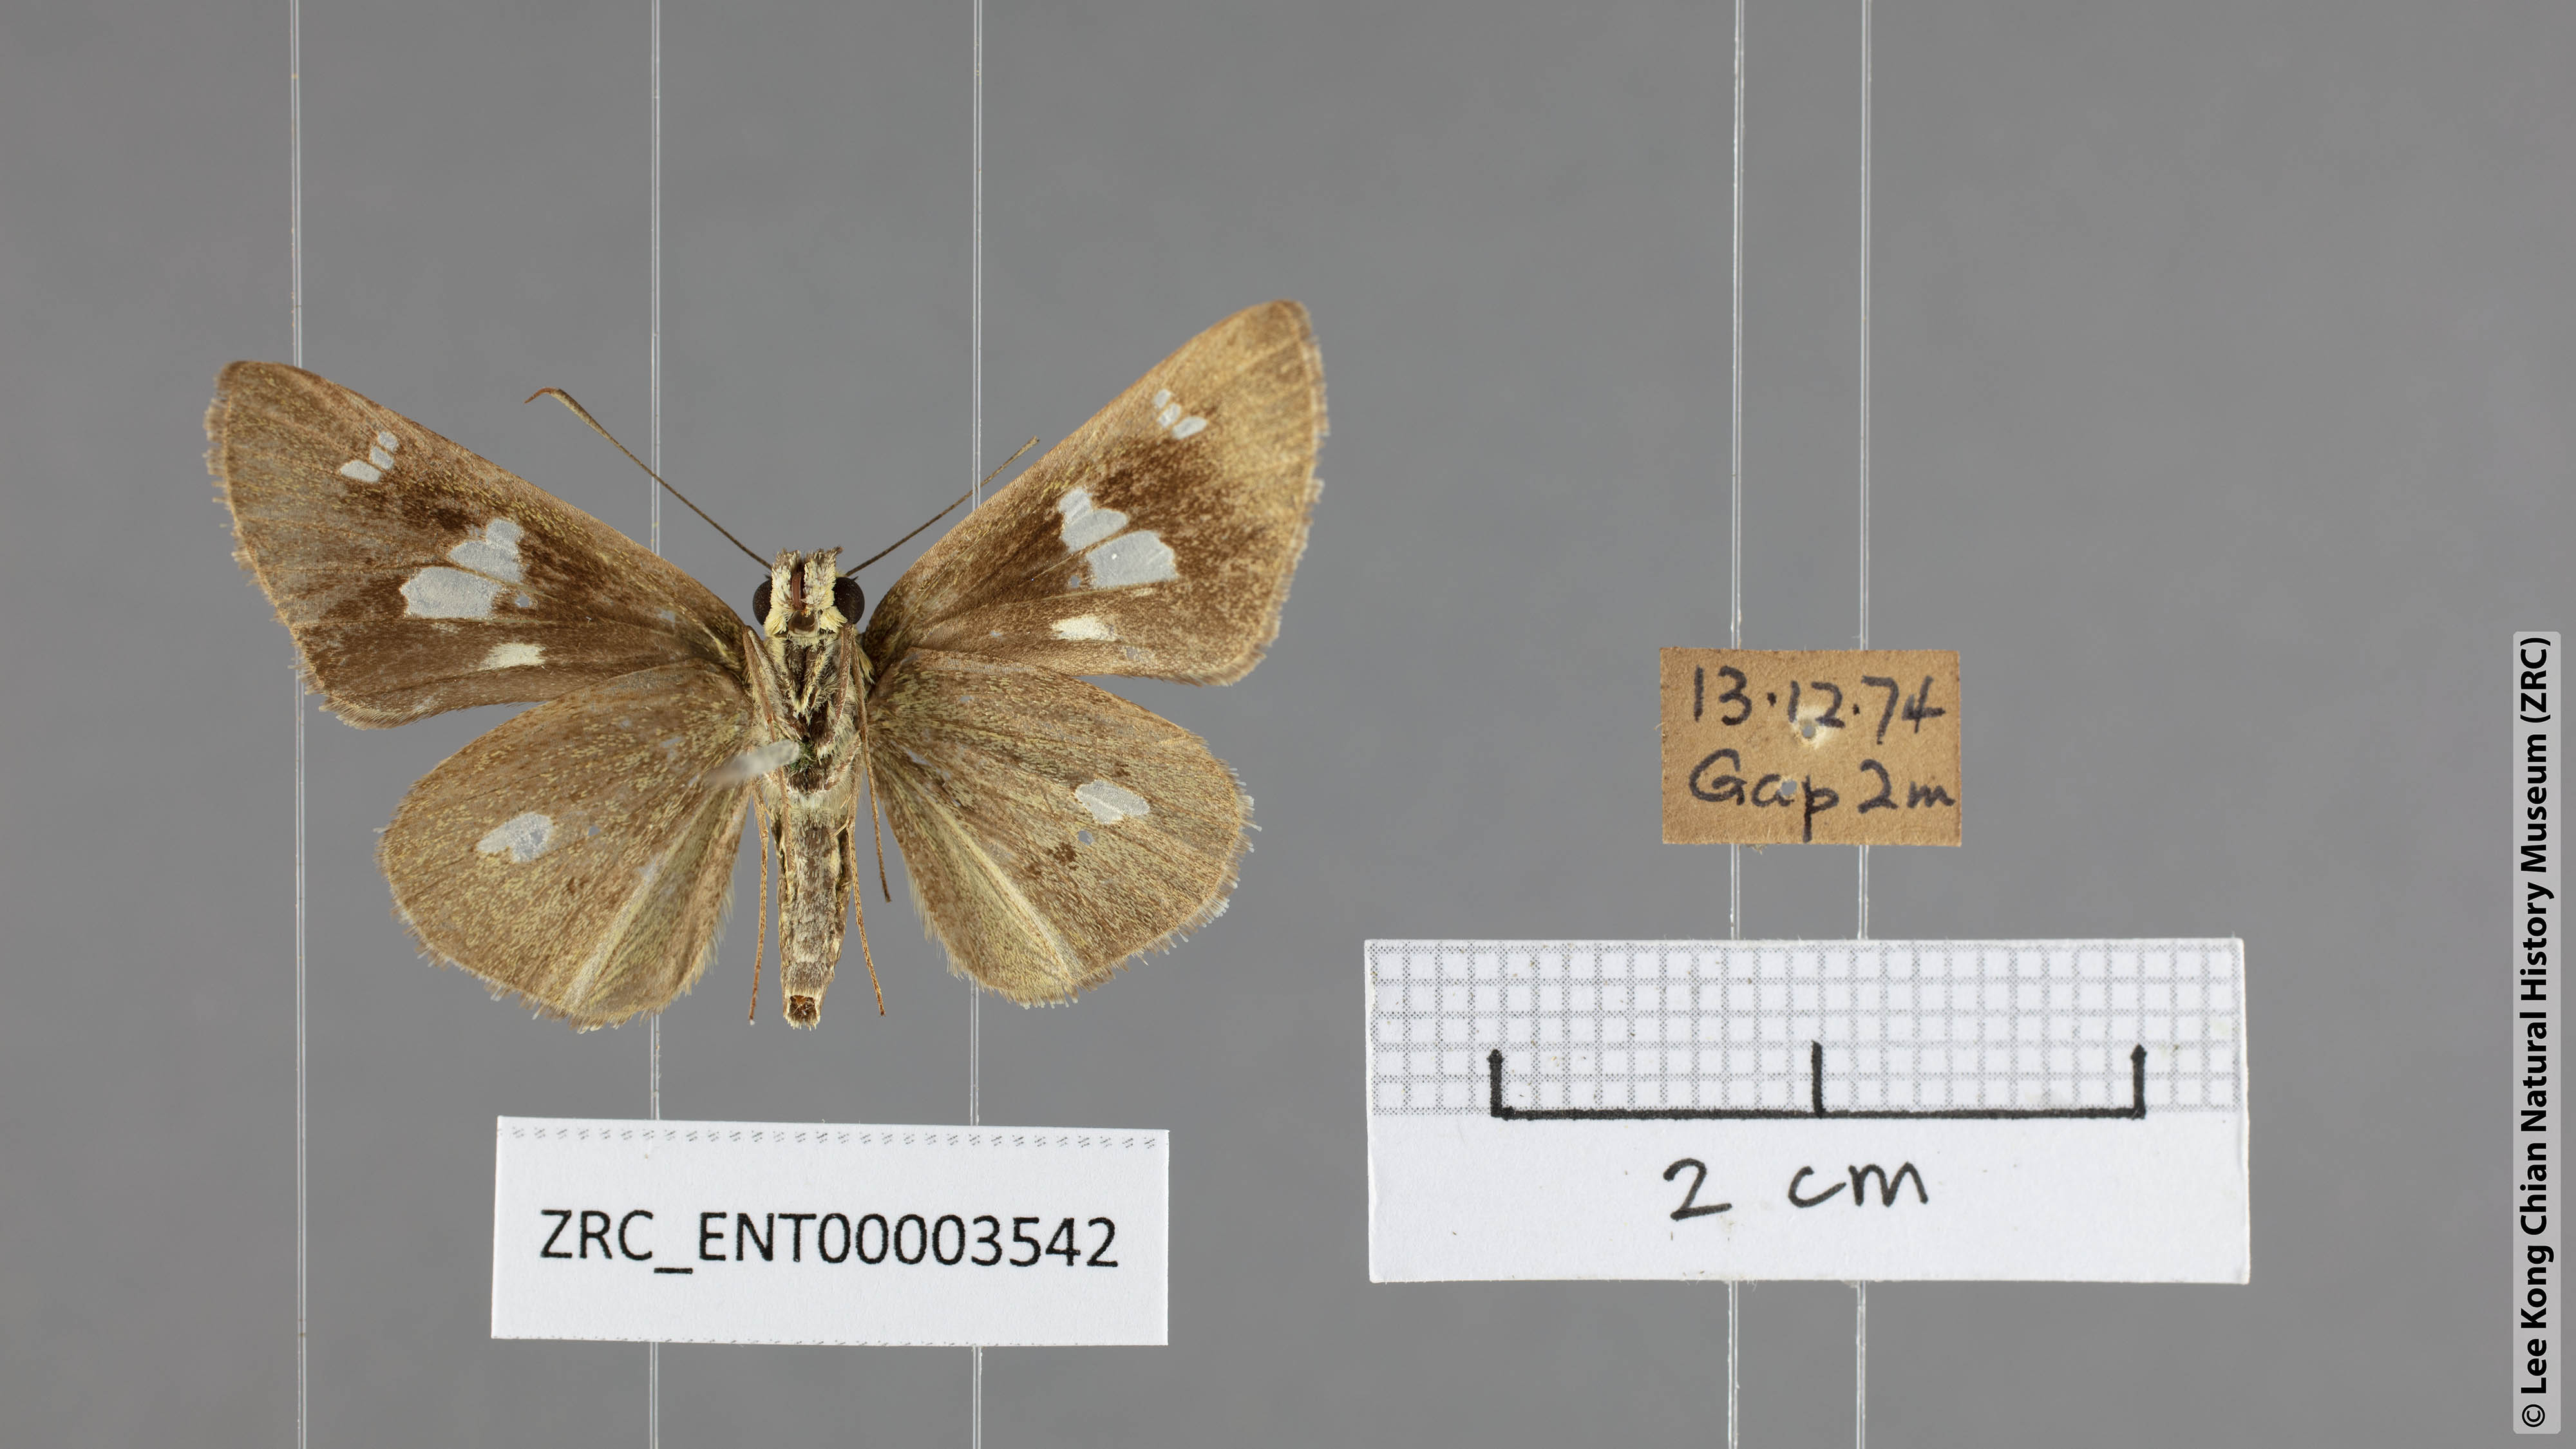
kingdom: Animalia
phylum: Arthropoda
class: Insecta
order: Lepidoptera
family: Hesperiidae
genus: Scobura
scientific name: Scobura phiditia
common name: Malay forest bob
